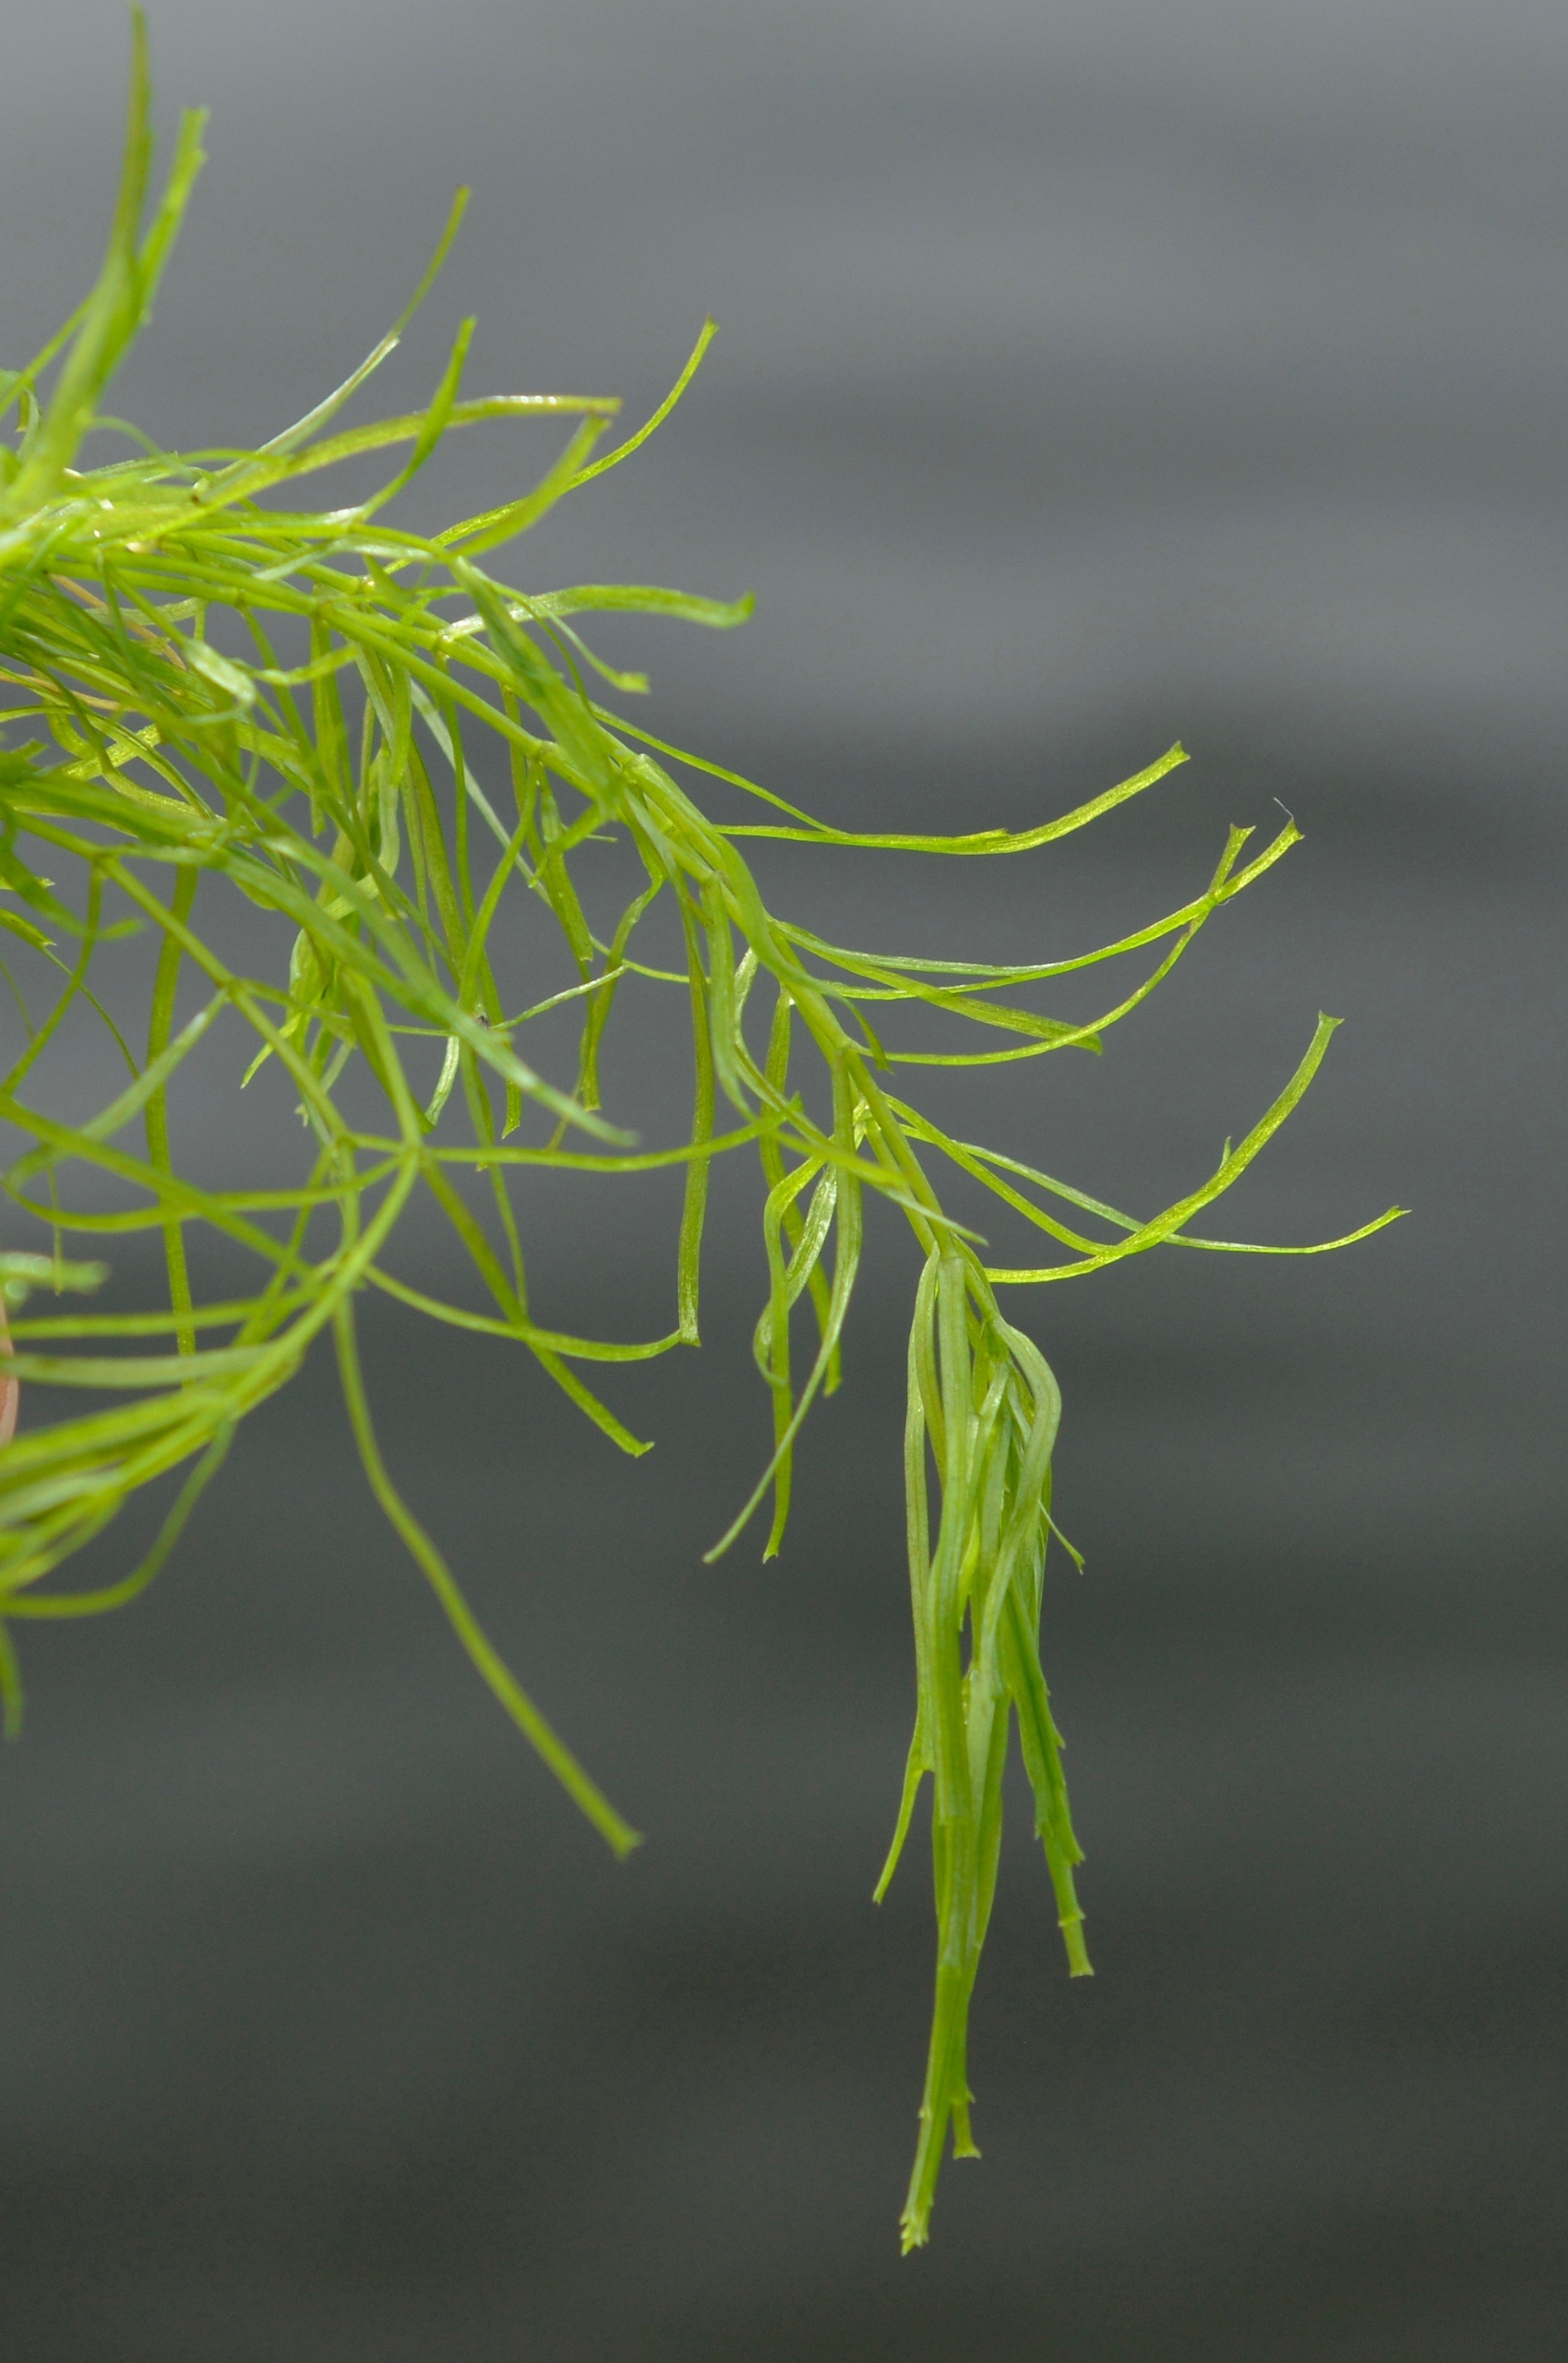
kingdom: Plantae
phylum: Tracheophyta
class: Magnoliopsida
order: Lamiales
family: Plantaginaceae
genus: Callitriche
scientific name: Callitriche hamulata
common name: Smalbladet vandstjerne
